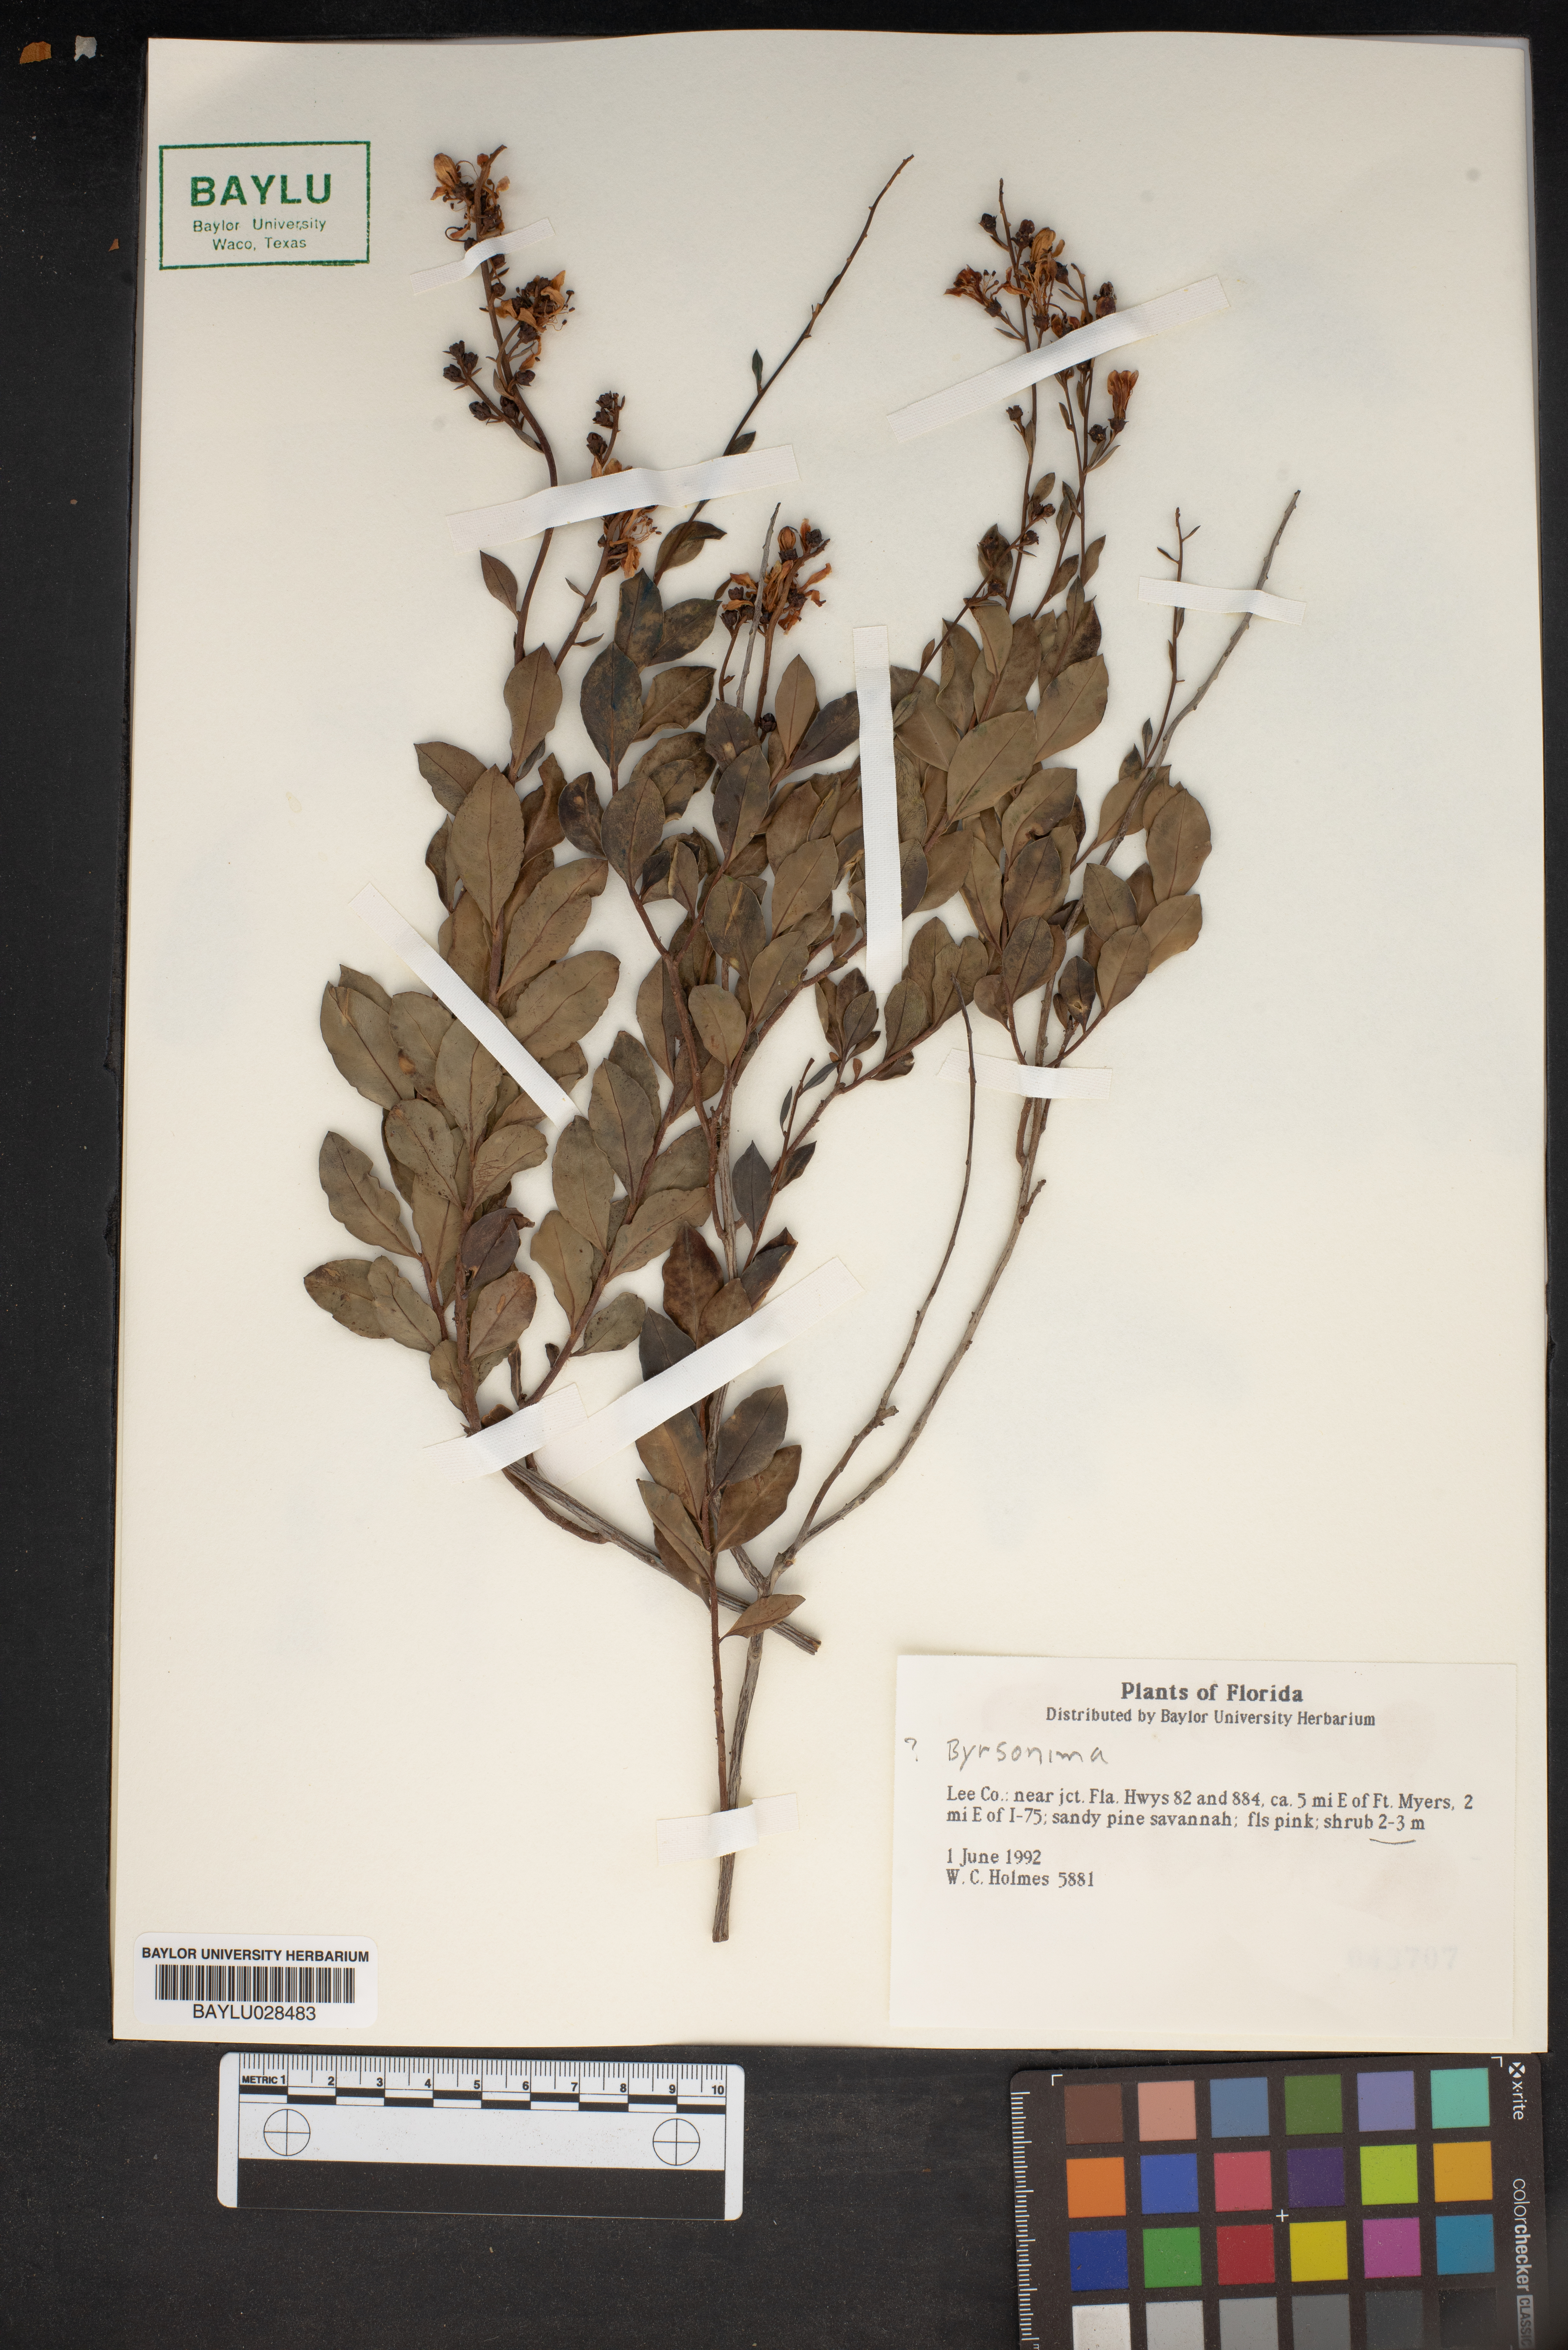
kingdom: Plantae
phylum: Tracheophyta
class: Magnoliopsida
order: Malpighiales
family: Malpighiaceae
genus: Byrsonima
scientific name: Byrsonima
